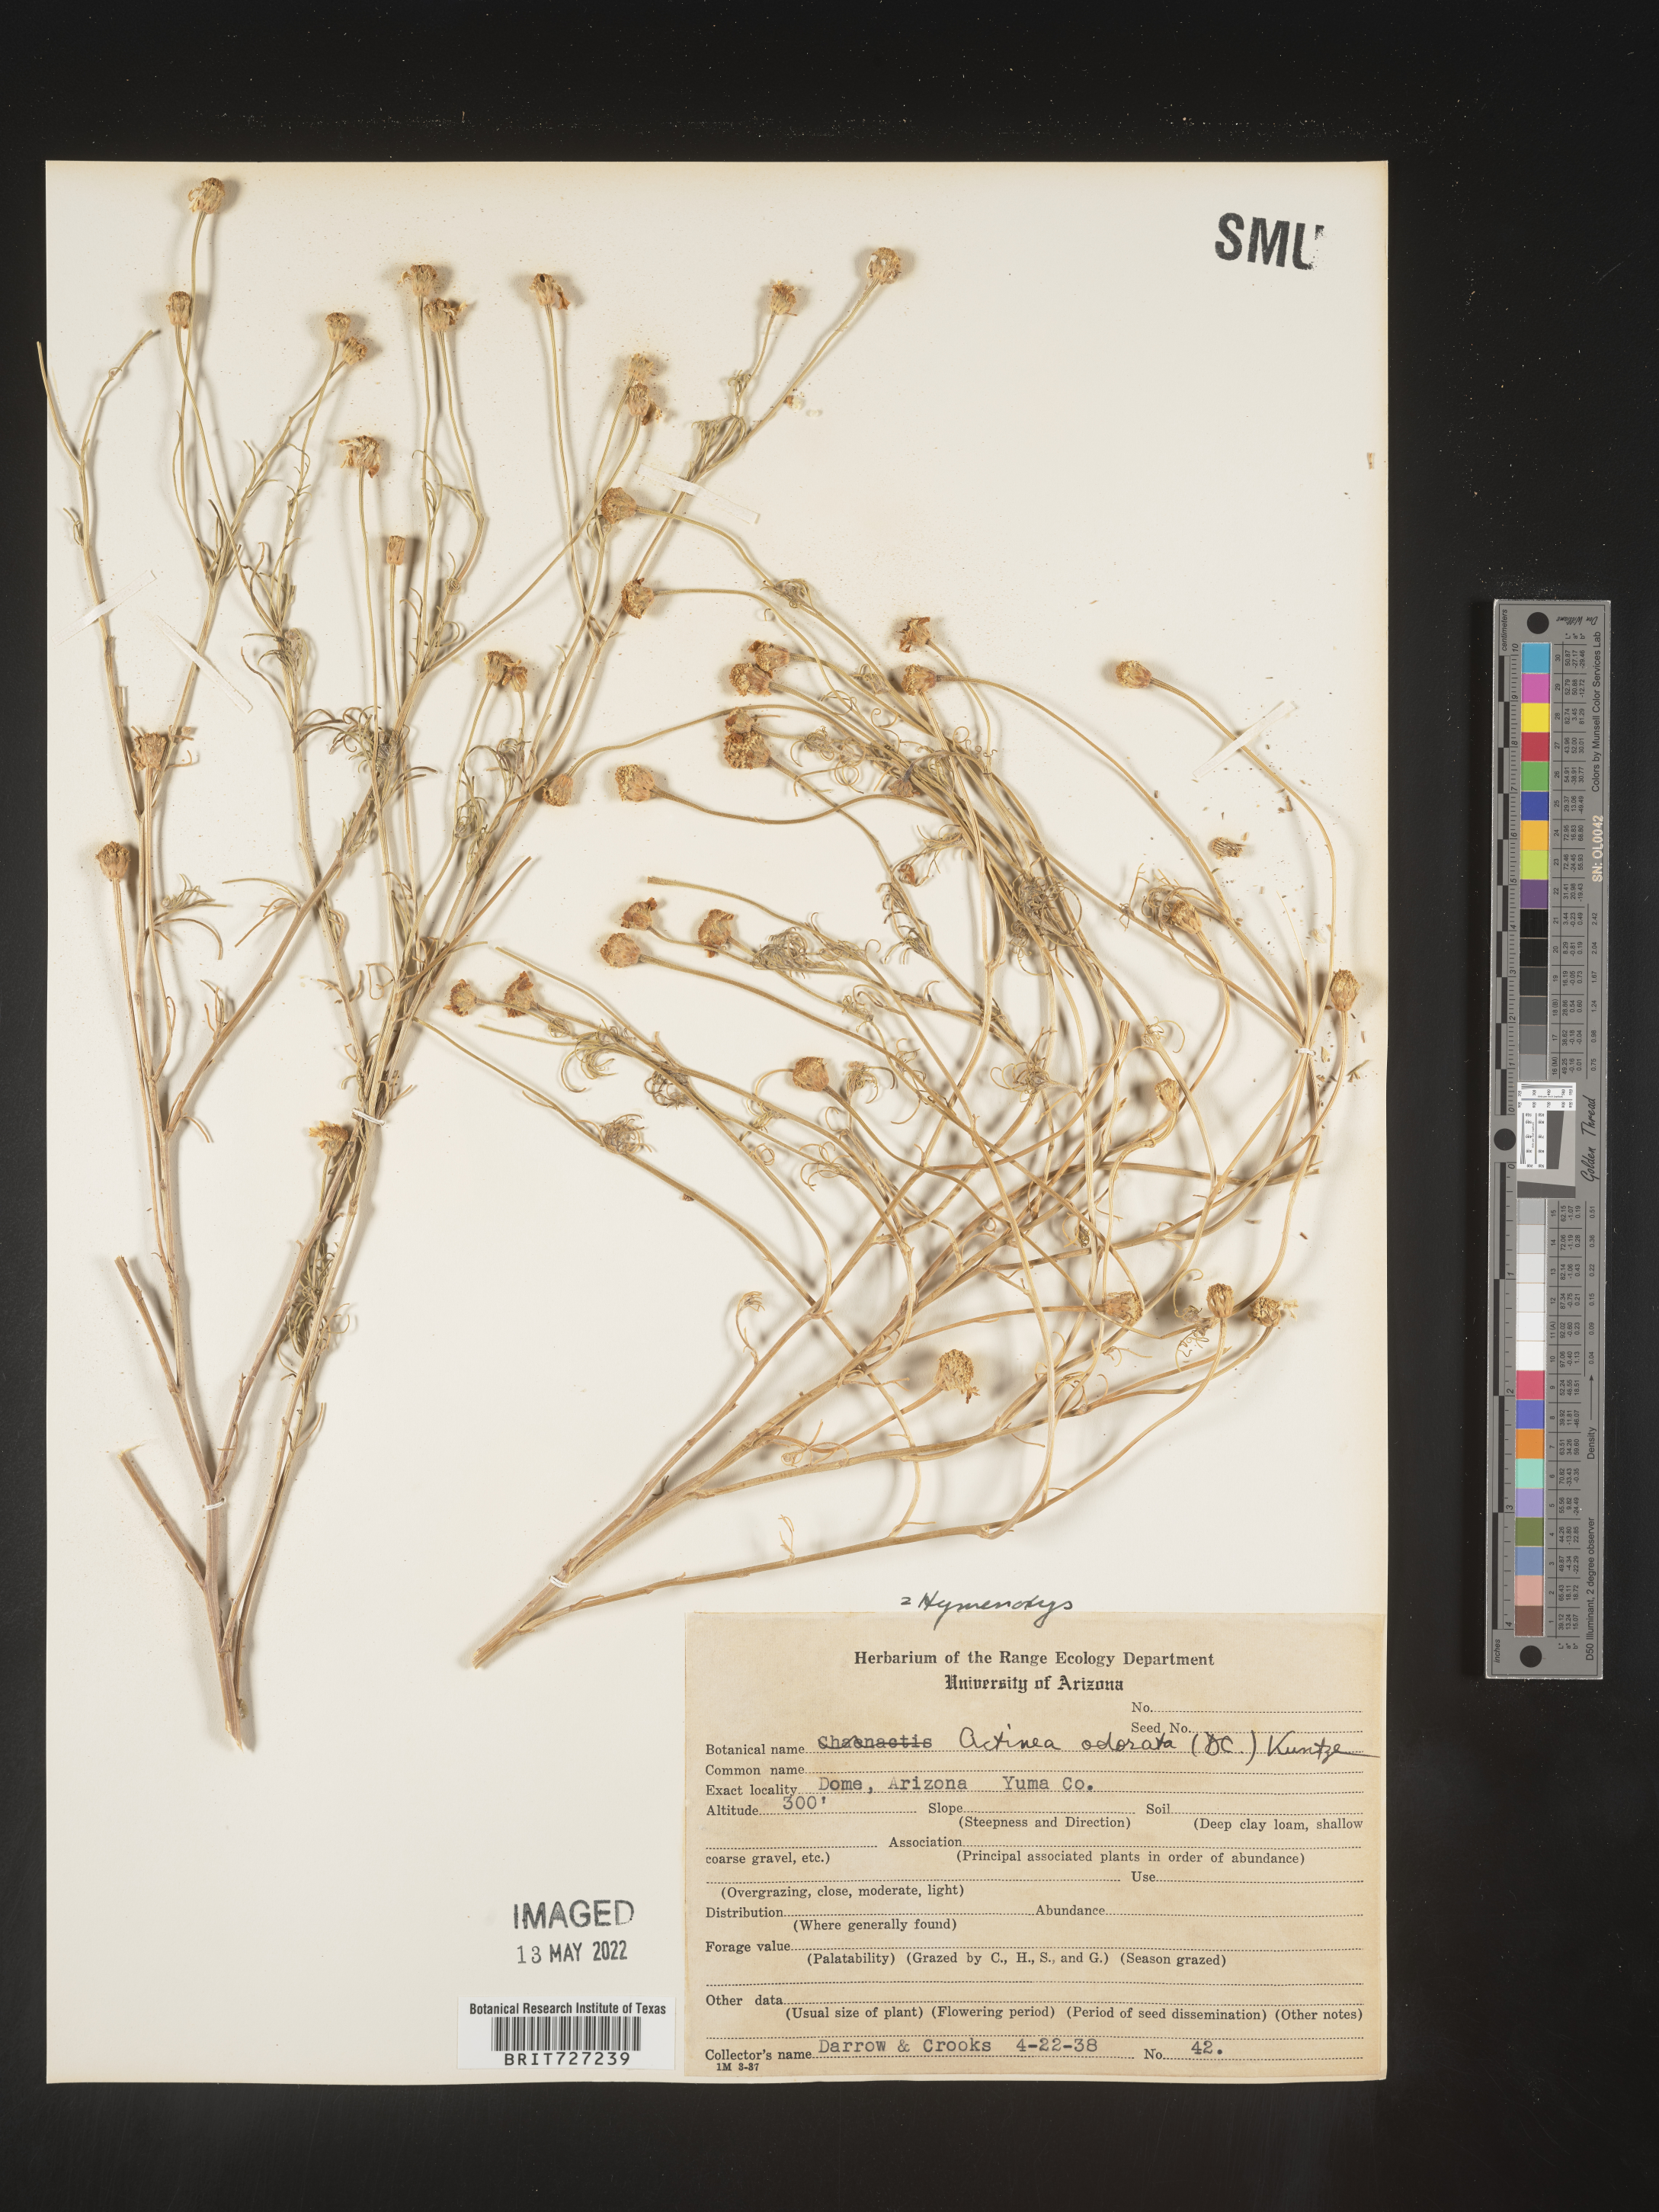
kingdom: Plantae
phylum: Tracheophyta
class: Magnoliopsida
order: Asterales
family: Asteraceae
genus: Hymenoxys
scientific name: Hymenoxys odorata
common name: Bitter rubberweed
